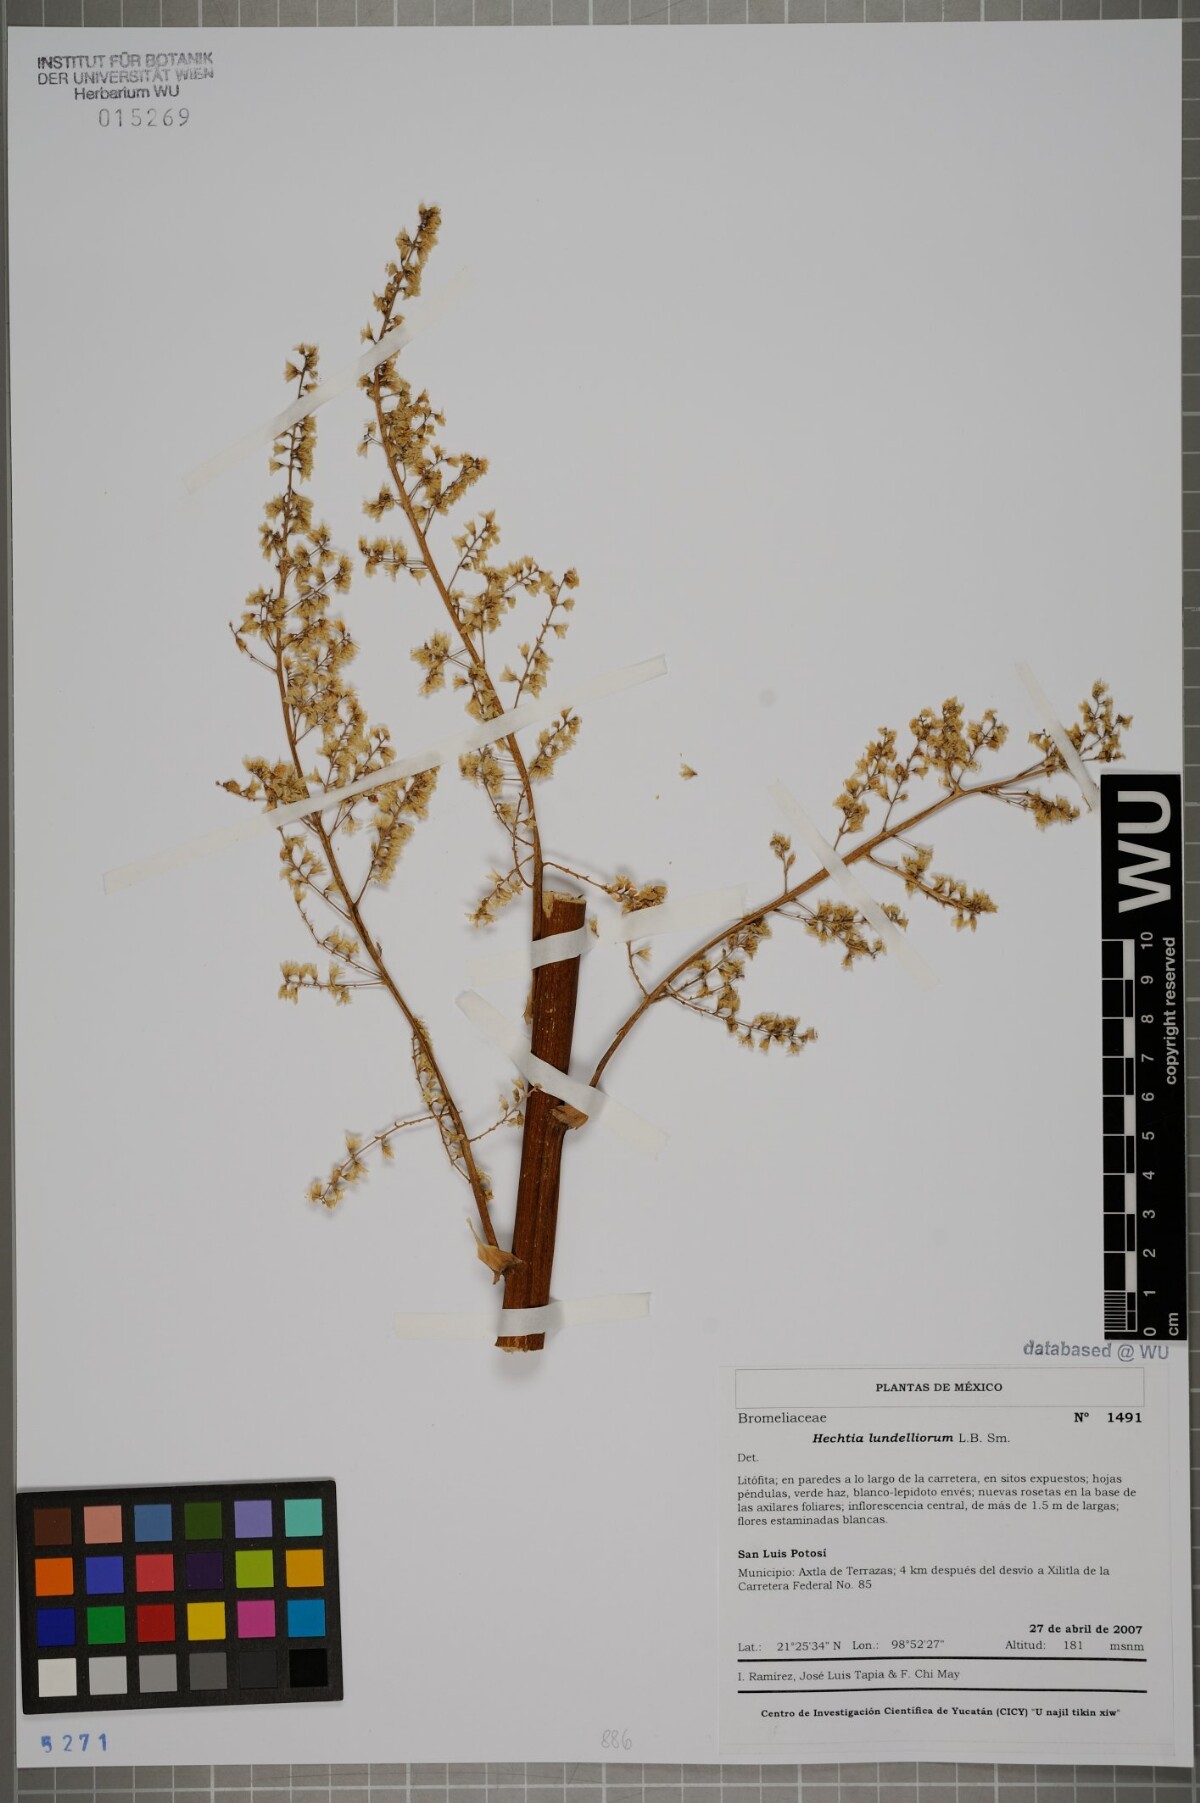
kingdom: Plantae
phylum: Tracheophyta
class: Liliopsida
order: Poales
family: Bromeliaceae
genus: Hechtia
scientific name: Hechtia lundelliorum
